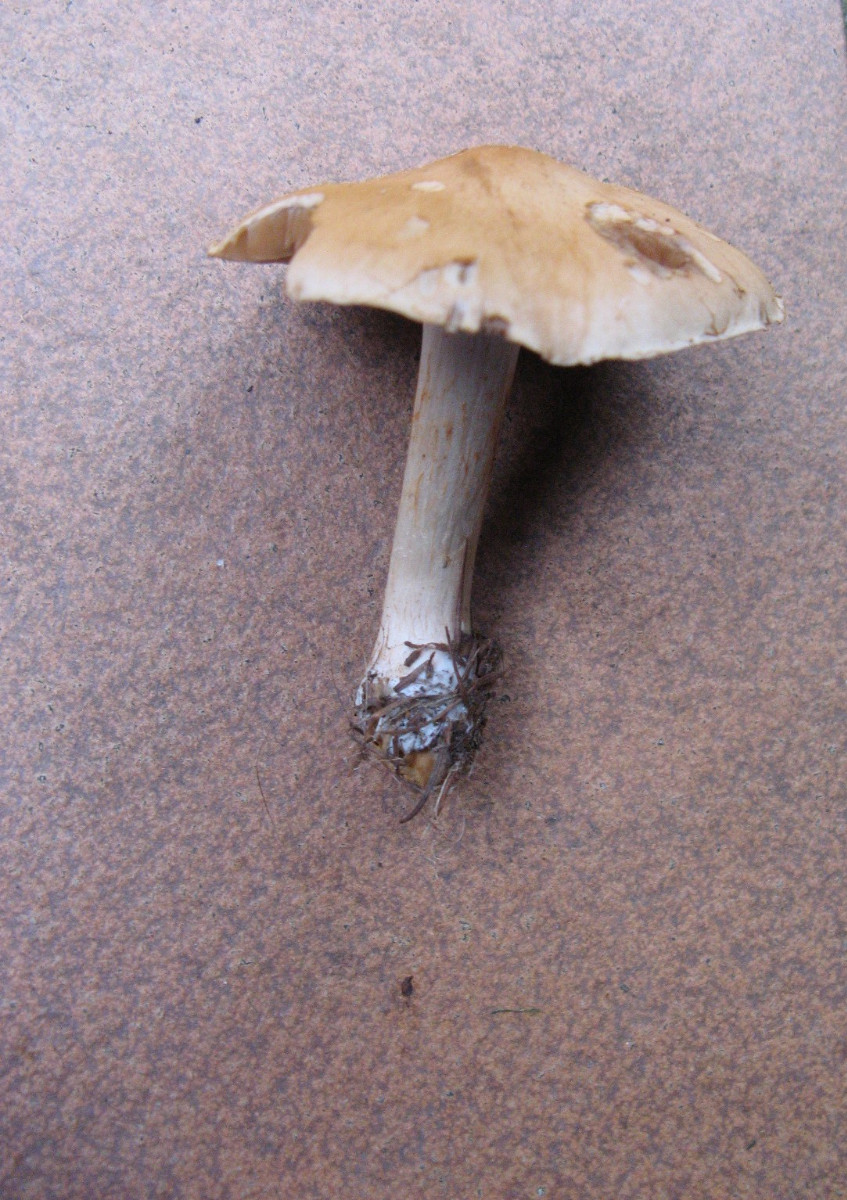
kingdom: Fungi
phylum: Basidiomycota
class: Agaricomycetes
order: Agaricales
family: Cortinariaceae
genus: Cortinarius
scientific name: Cortinarius subbalaustinus
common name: birke-slørhat
